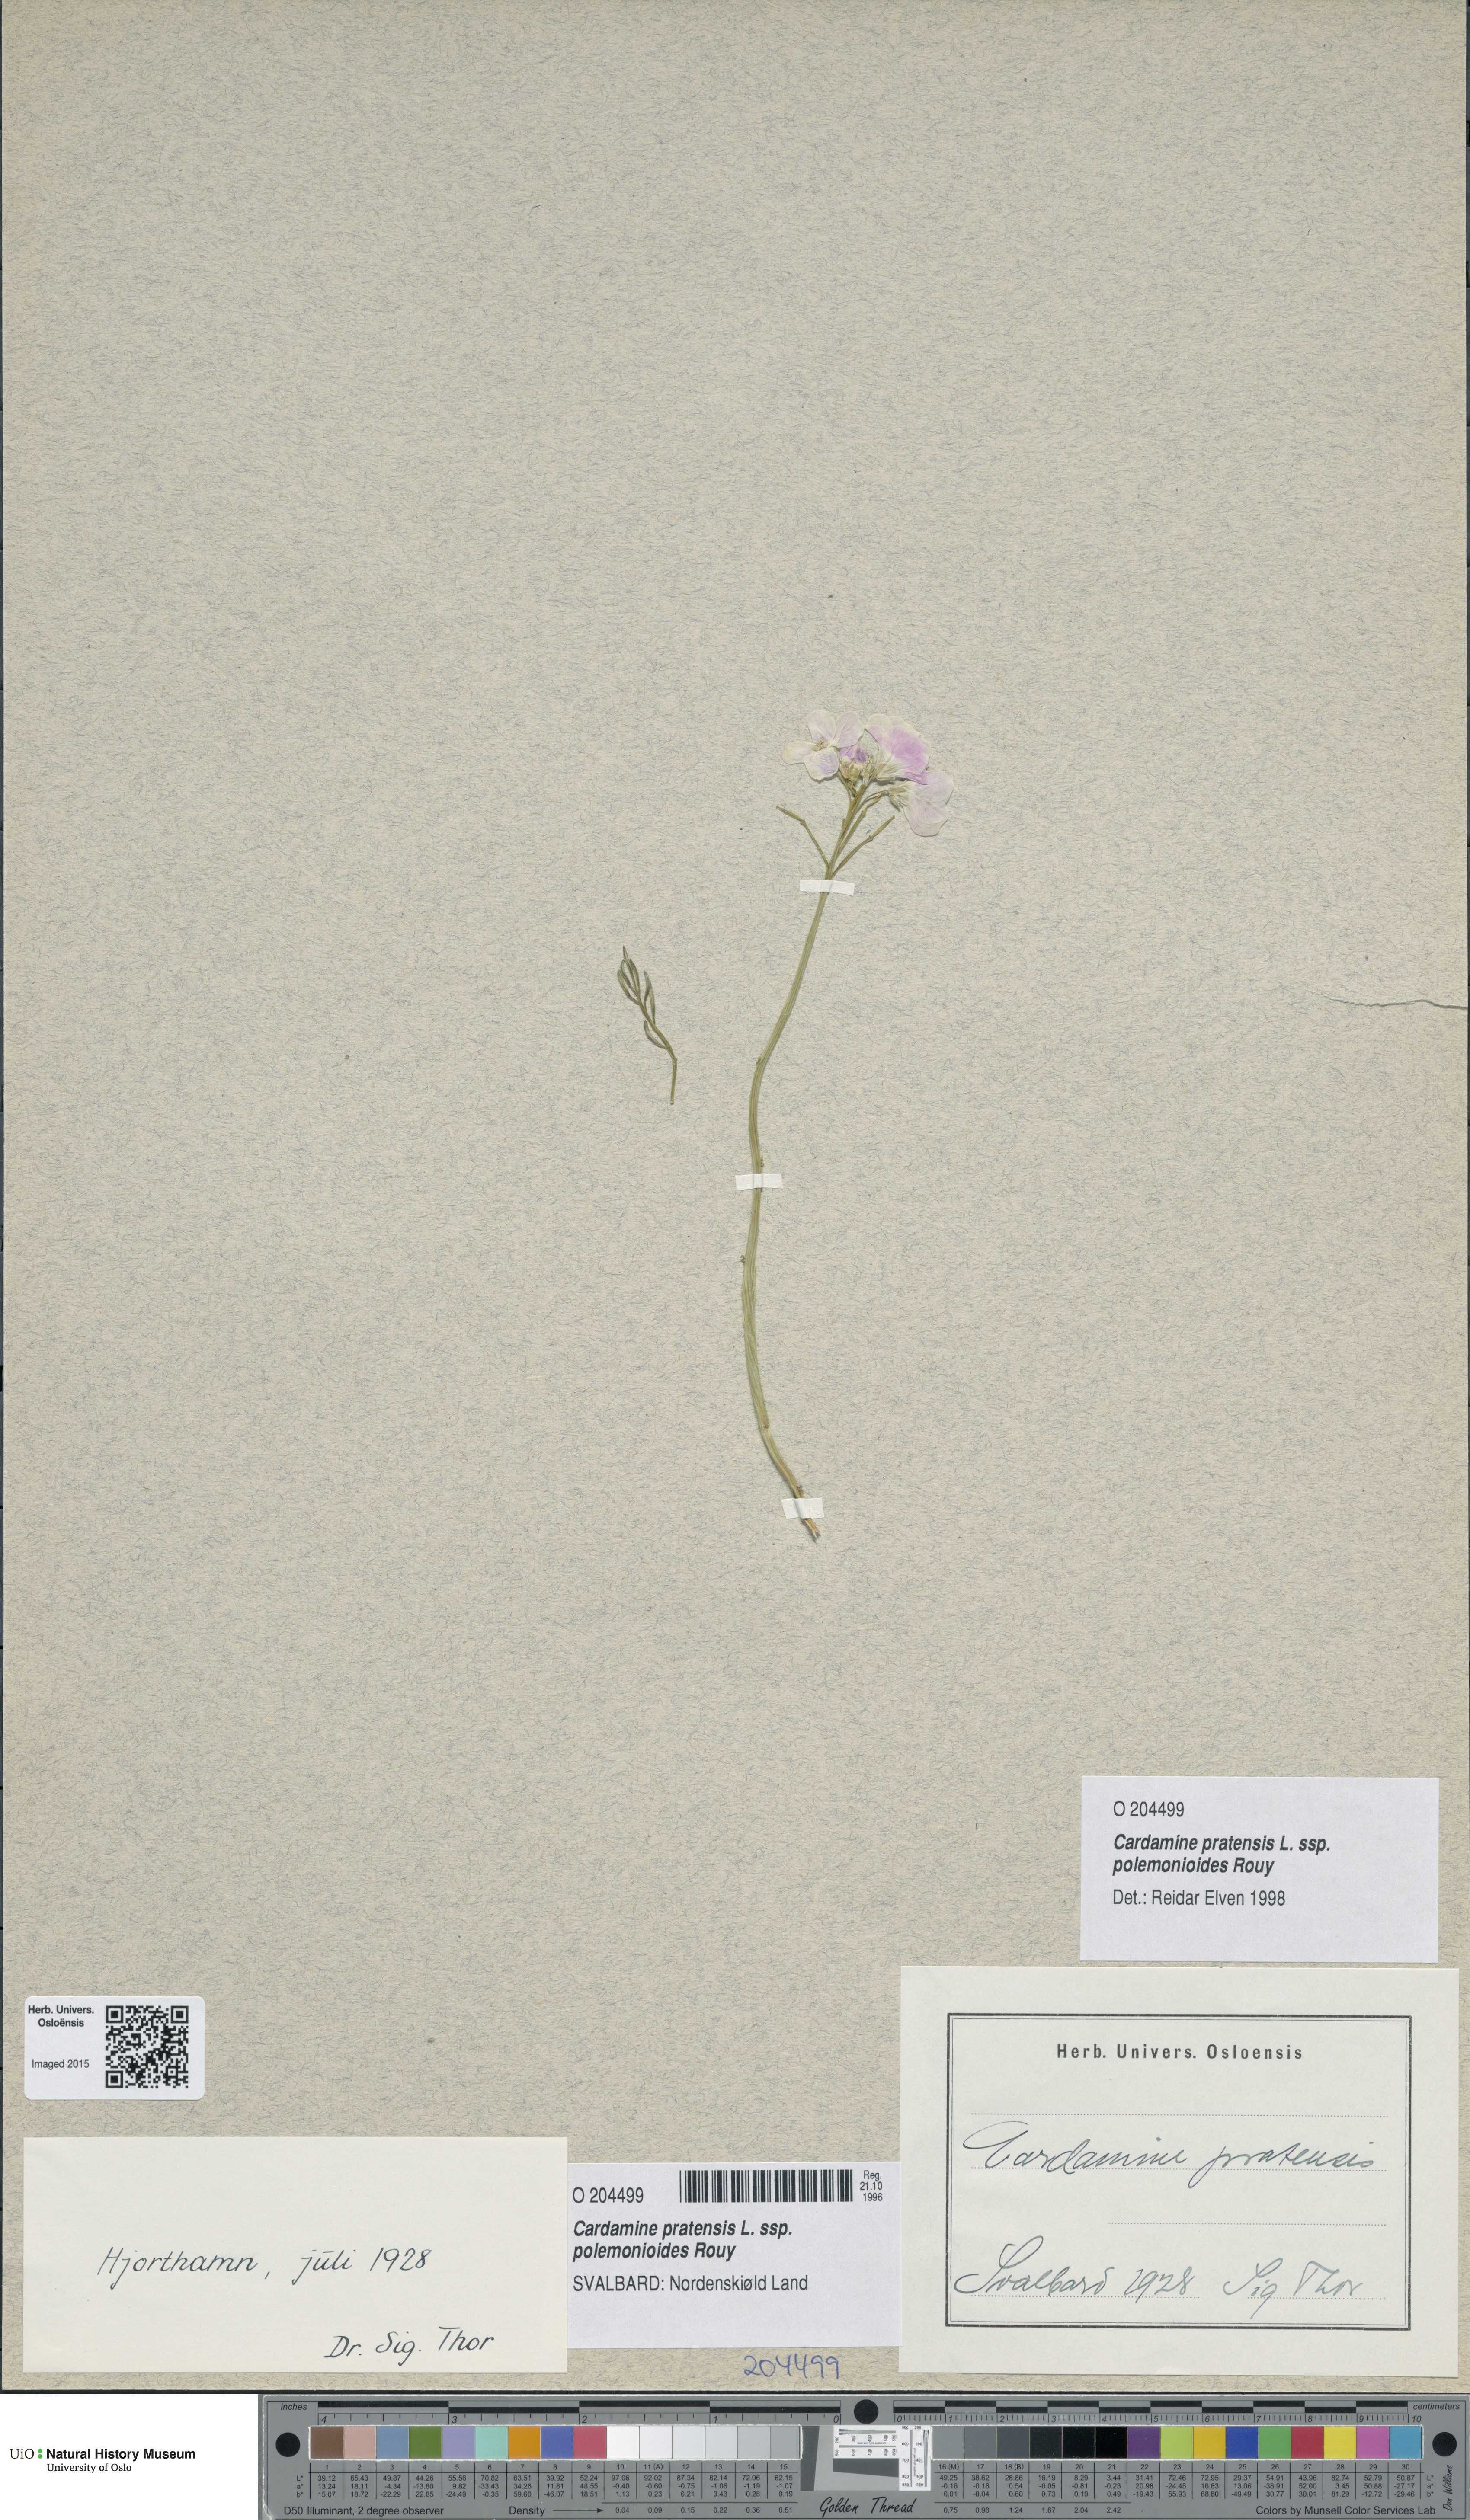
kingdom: Plantae
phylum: Tracheophyta
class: Magnoliopsida
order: Brassicales
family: Brassicaceae
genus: Cardamine
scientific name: Cardamine nymanii
